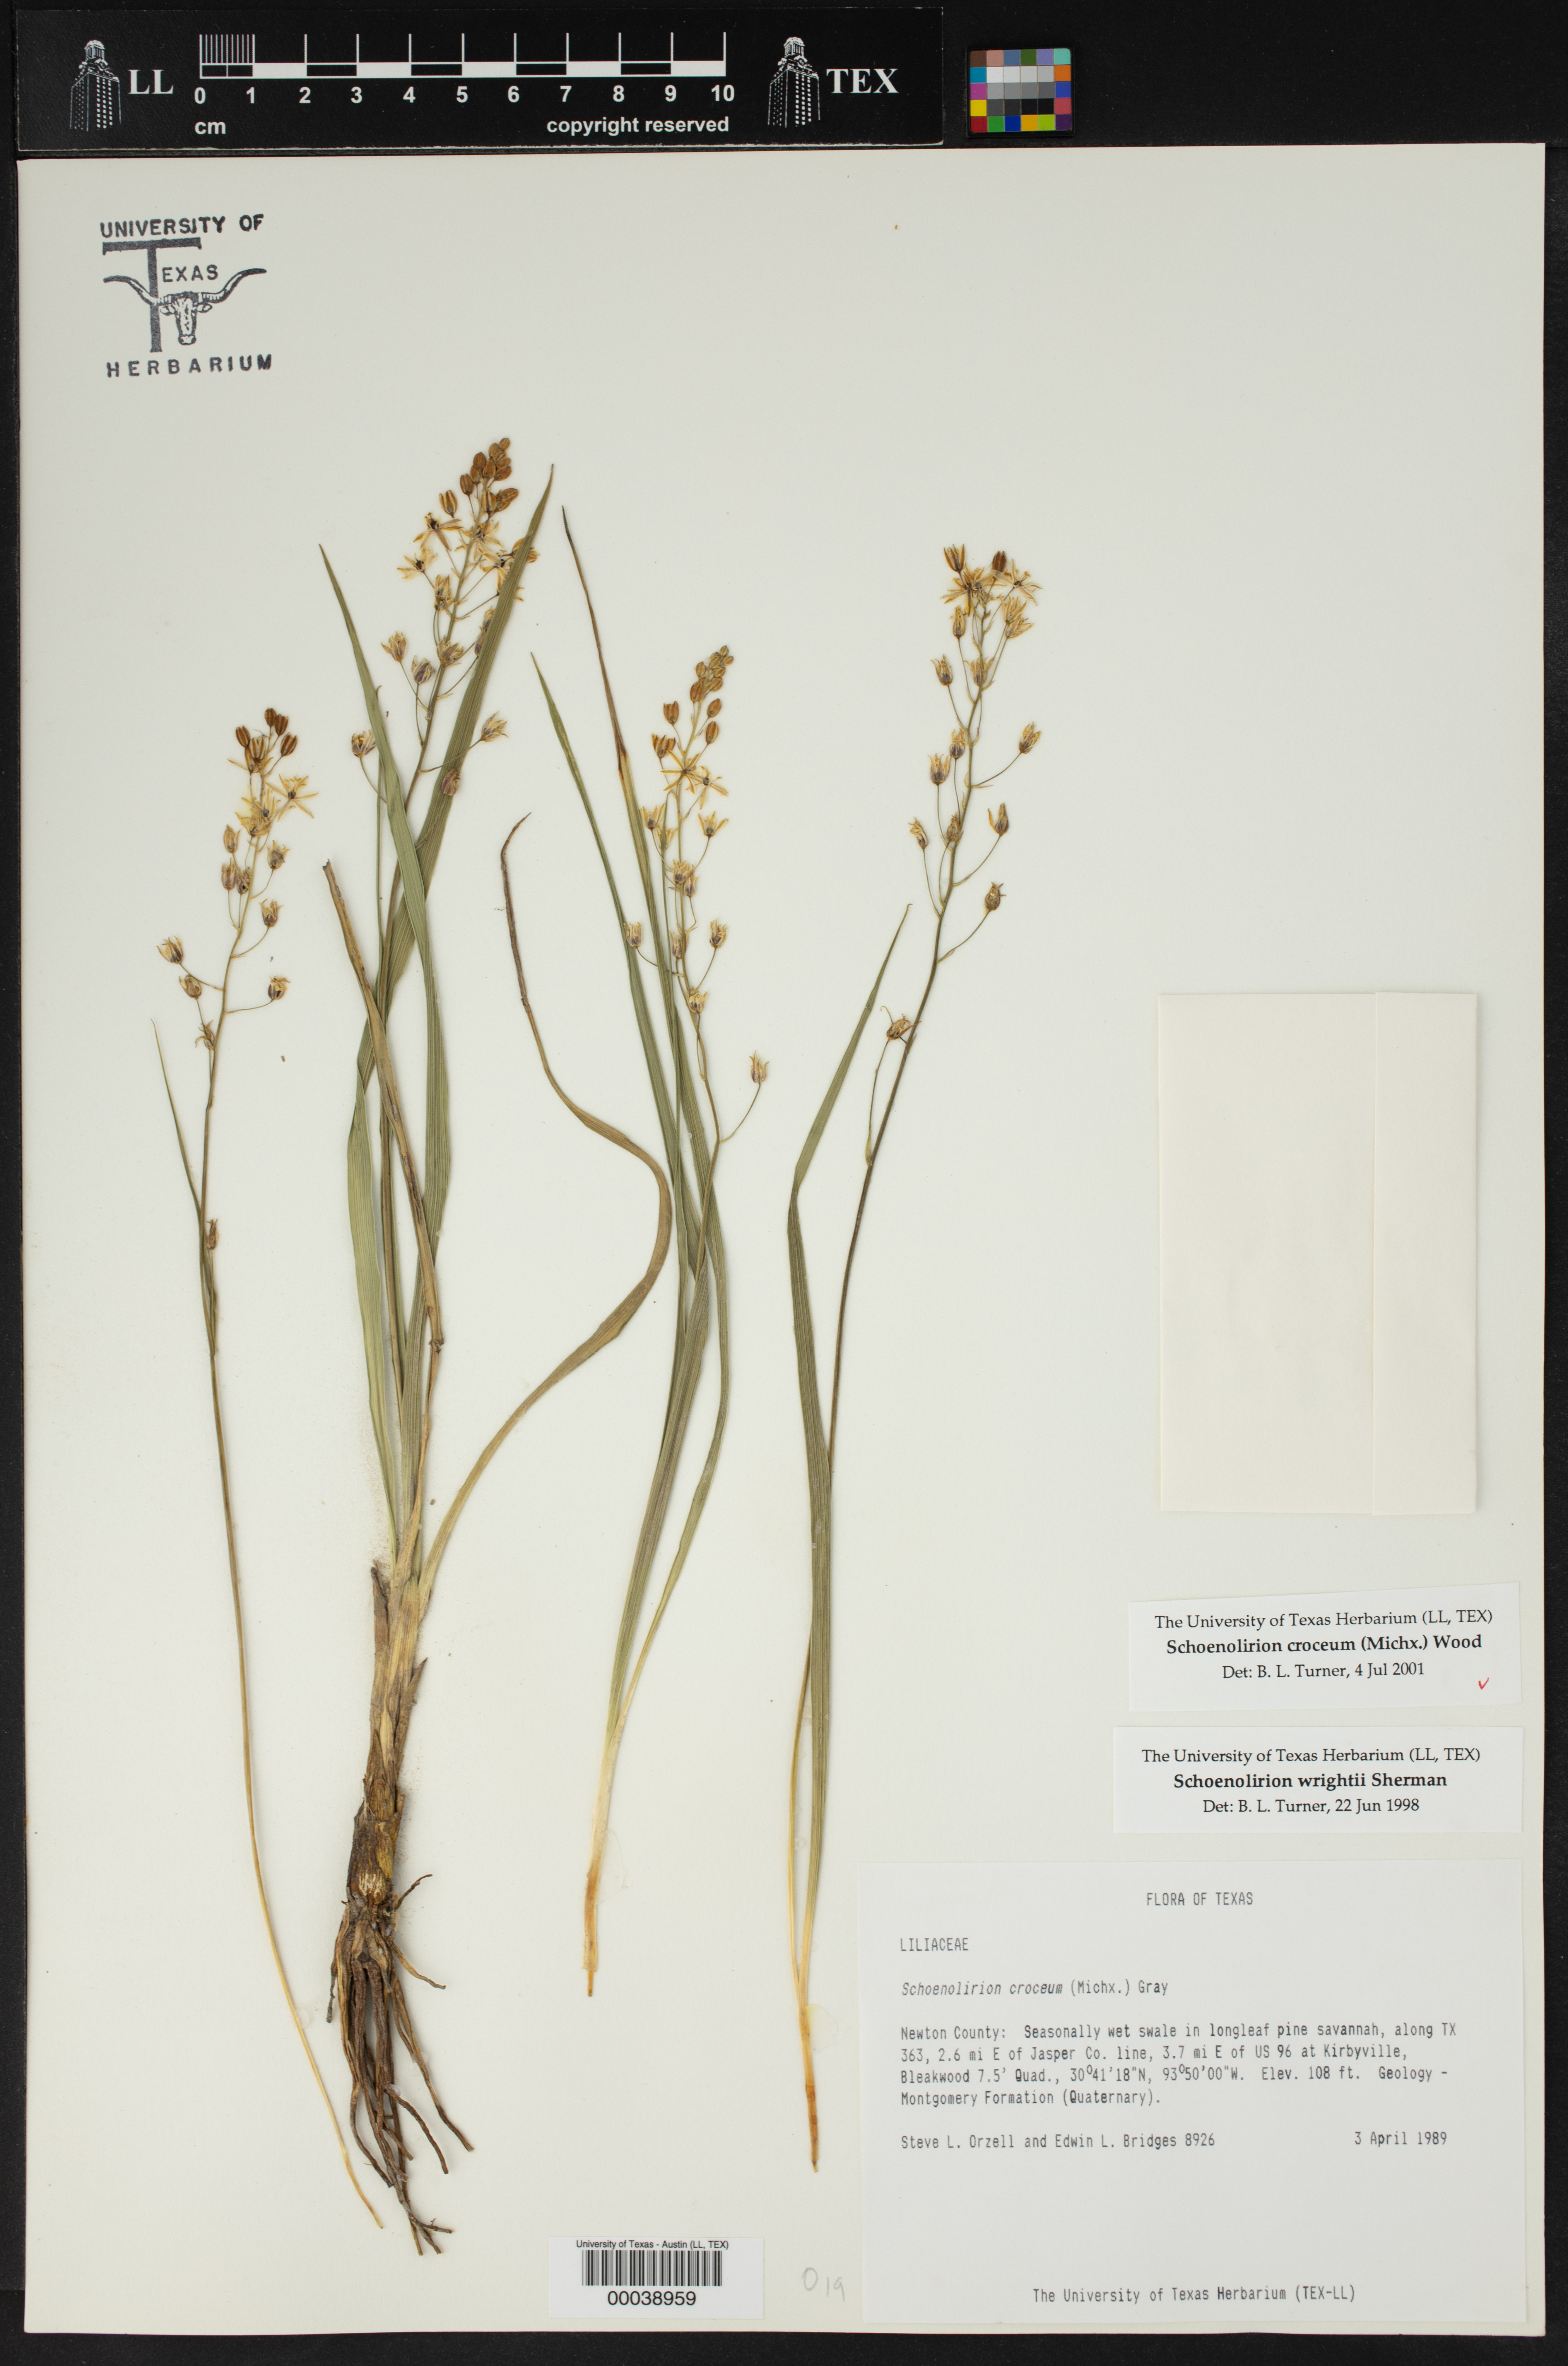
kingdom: Plantae
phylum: Tracheophyta
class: Liliopsida
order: Asparagales
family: Asparagaceae
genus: Schoenolirion
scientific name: Schoenolirion croceum
